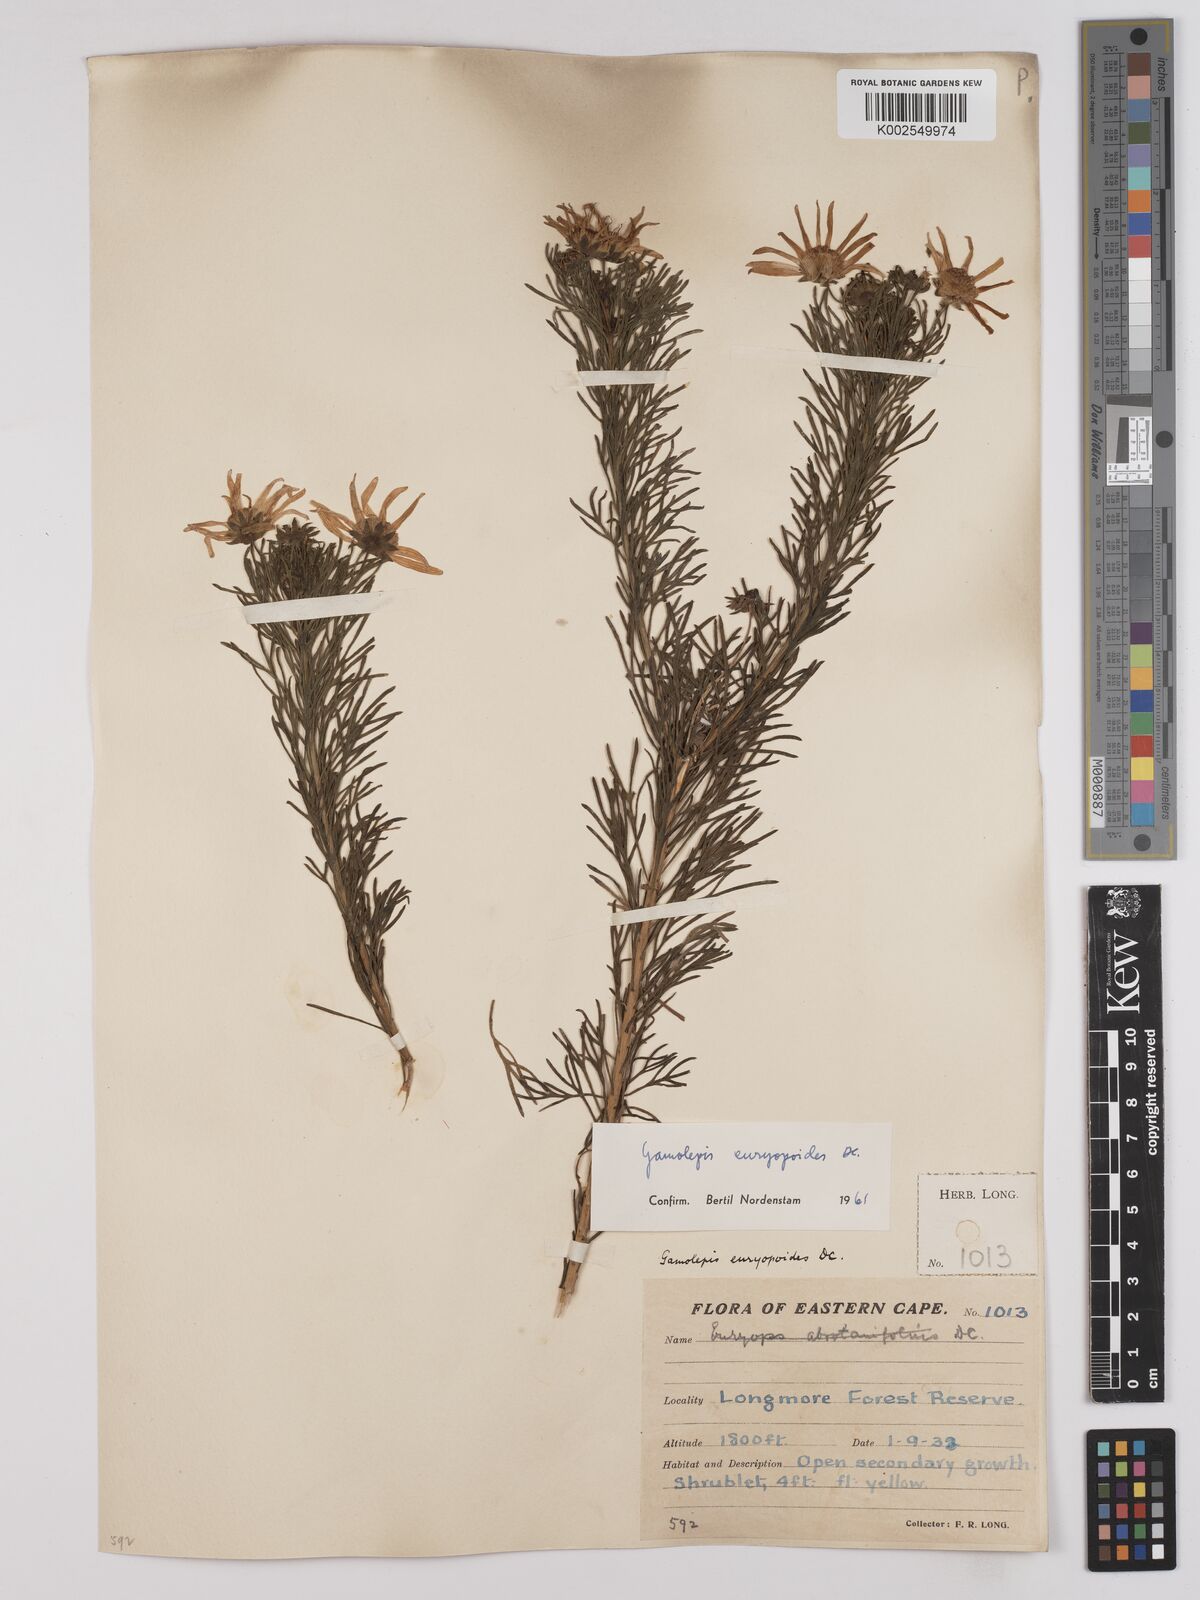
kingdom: Plantae
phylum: Tracheophyta
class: Magnoliopsida
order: Asterales
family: Asteraceae
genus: Euryops
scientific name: Euryops euryopoides
